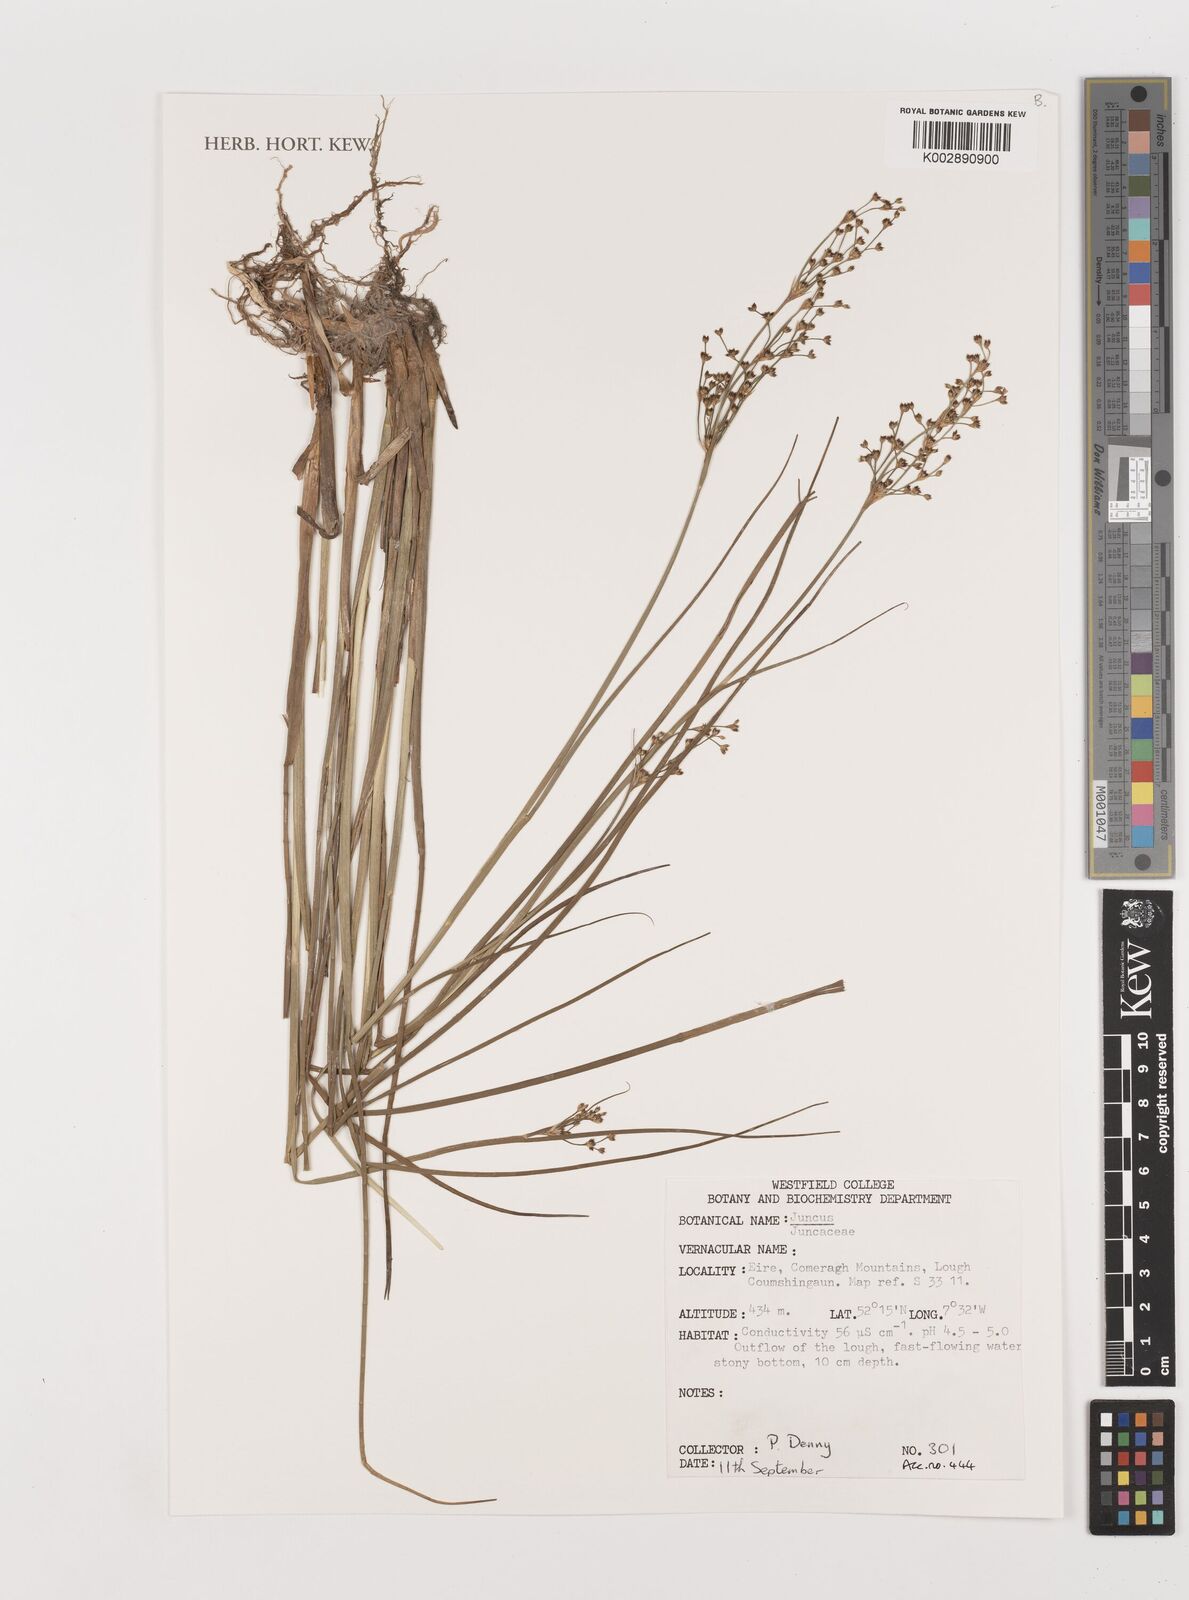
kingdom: Plantae
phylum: Tracheophyta
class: Liliopsida
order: Poales
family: Juncaceae
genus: Juncus
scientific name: Juncus
